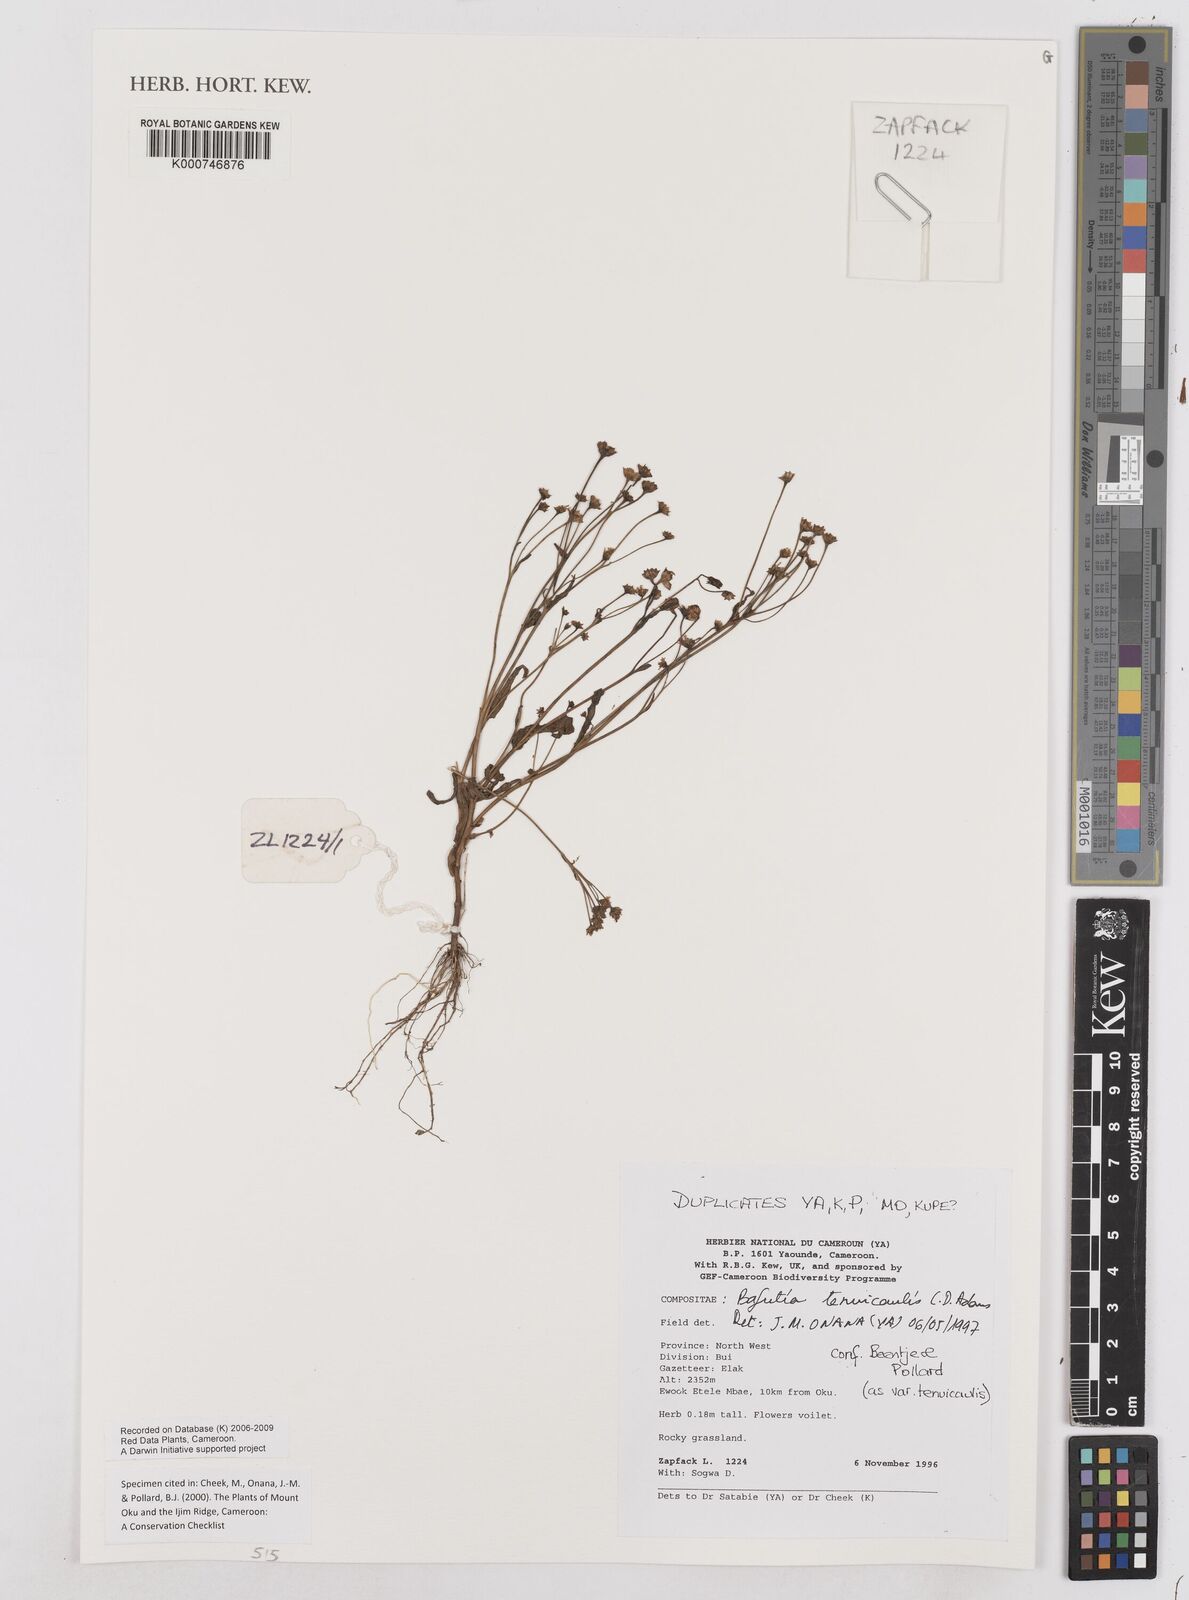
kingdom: Plantae
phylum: Tracheophyta
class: Magnoliopsida
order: Asterales
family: Asteraceae
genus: Emilia
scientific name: Emilia tenuicaulis
